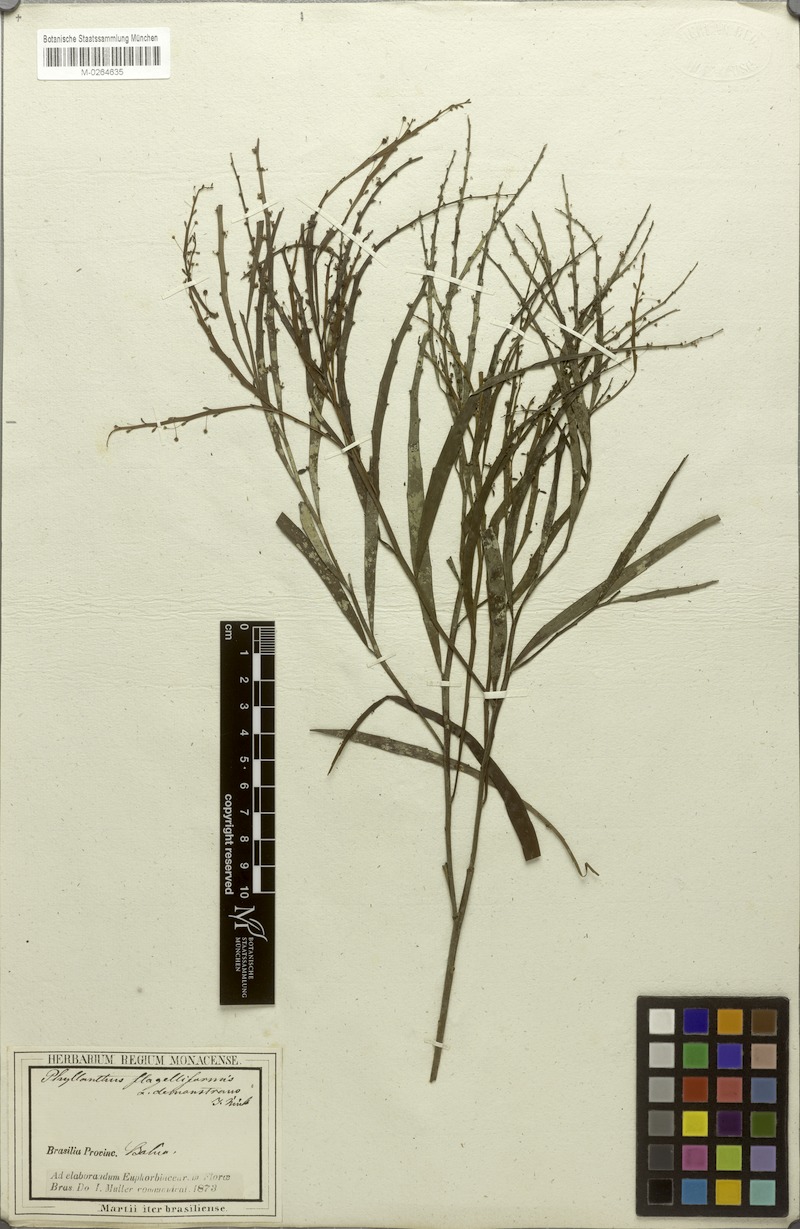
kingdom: Plantae
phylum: Tracheophyta
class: Magnoliopsida
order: Malpighiales
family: Phyllanthaceae
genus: Phyllanthus
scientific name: Phyllanthus eurisladro
